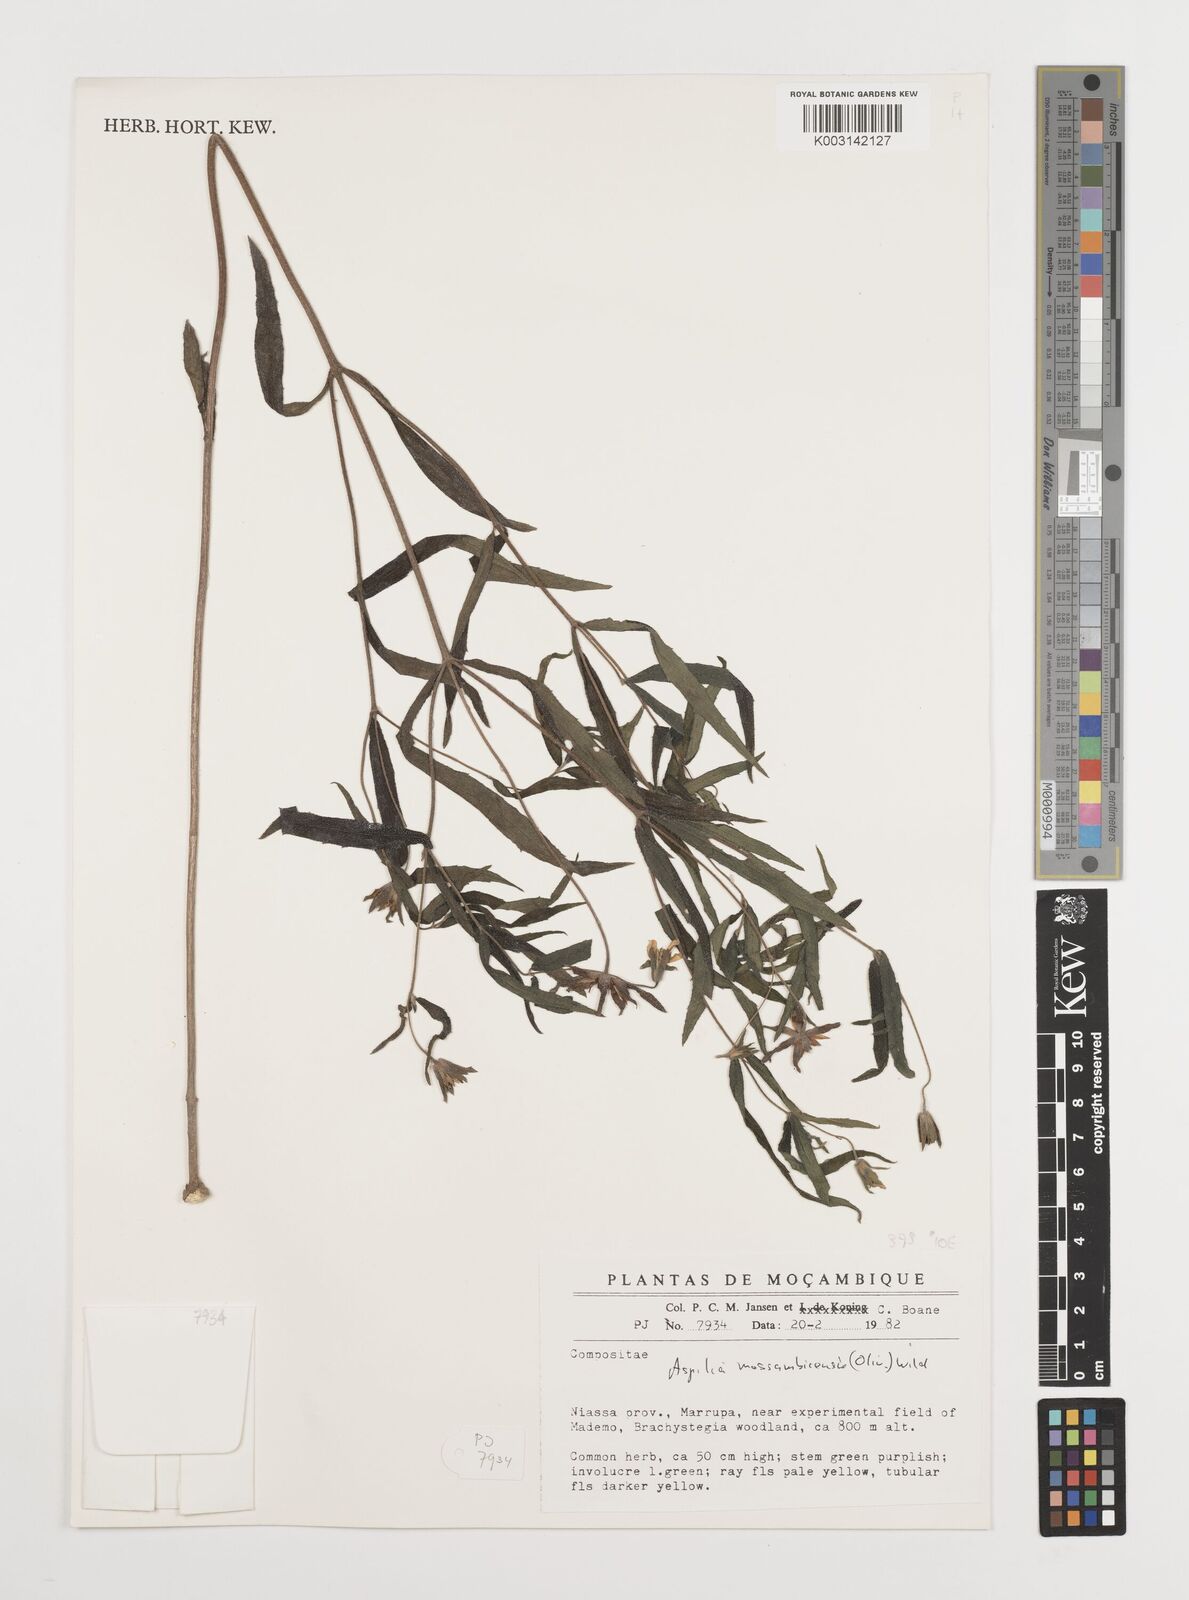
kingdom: Plantae
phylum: Tracheophyta
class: Magnoliopsida
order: Asterales
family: Asteraceae
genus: Aspilia
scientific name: Aspilia mossambicensis
